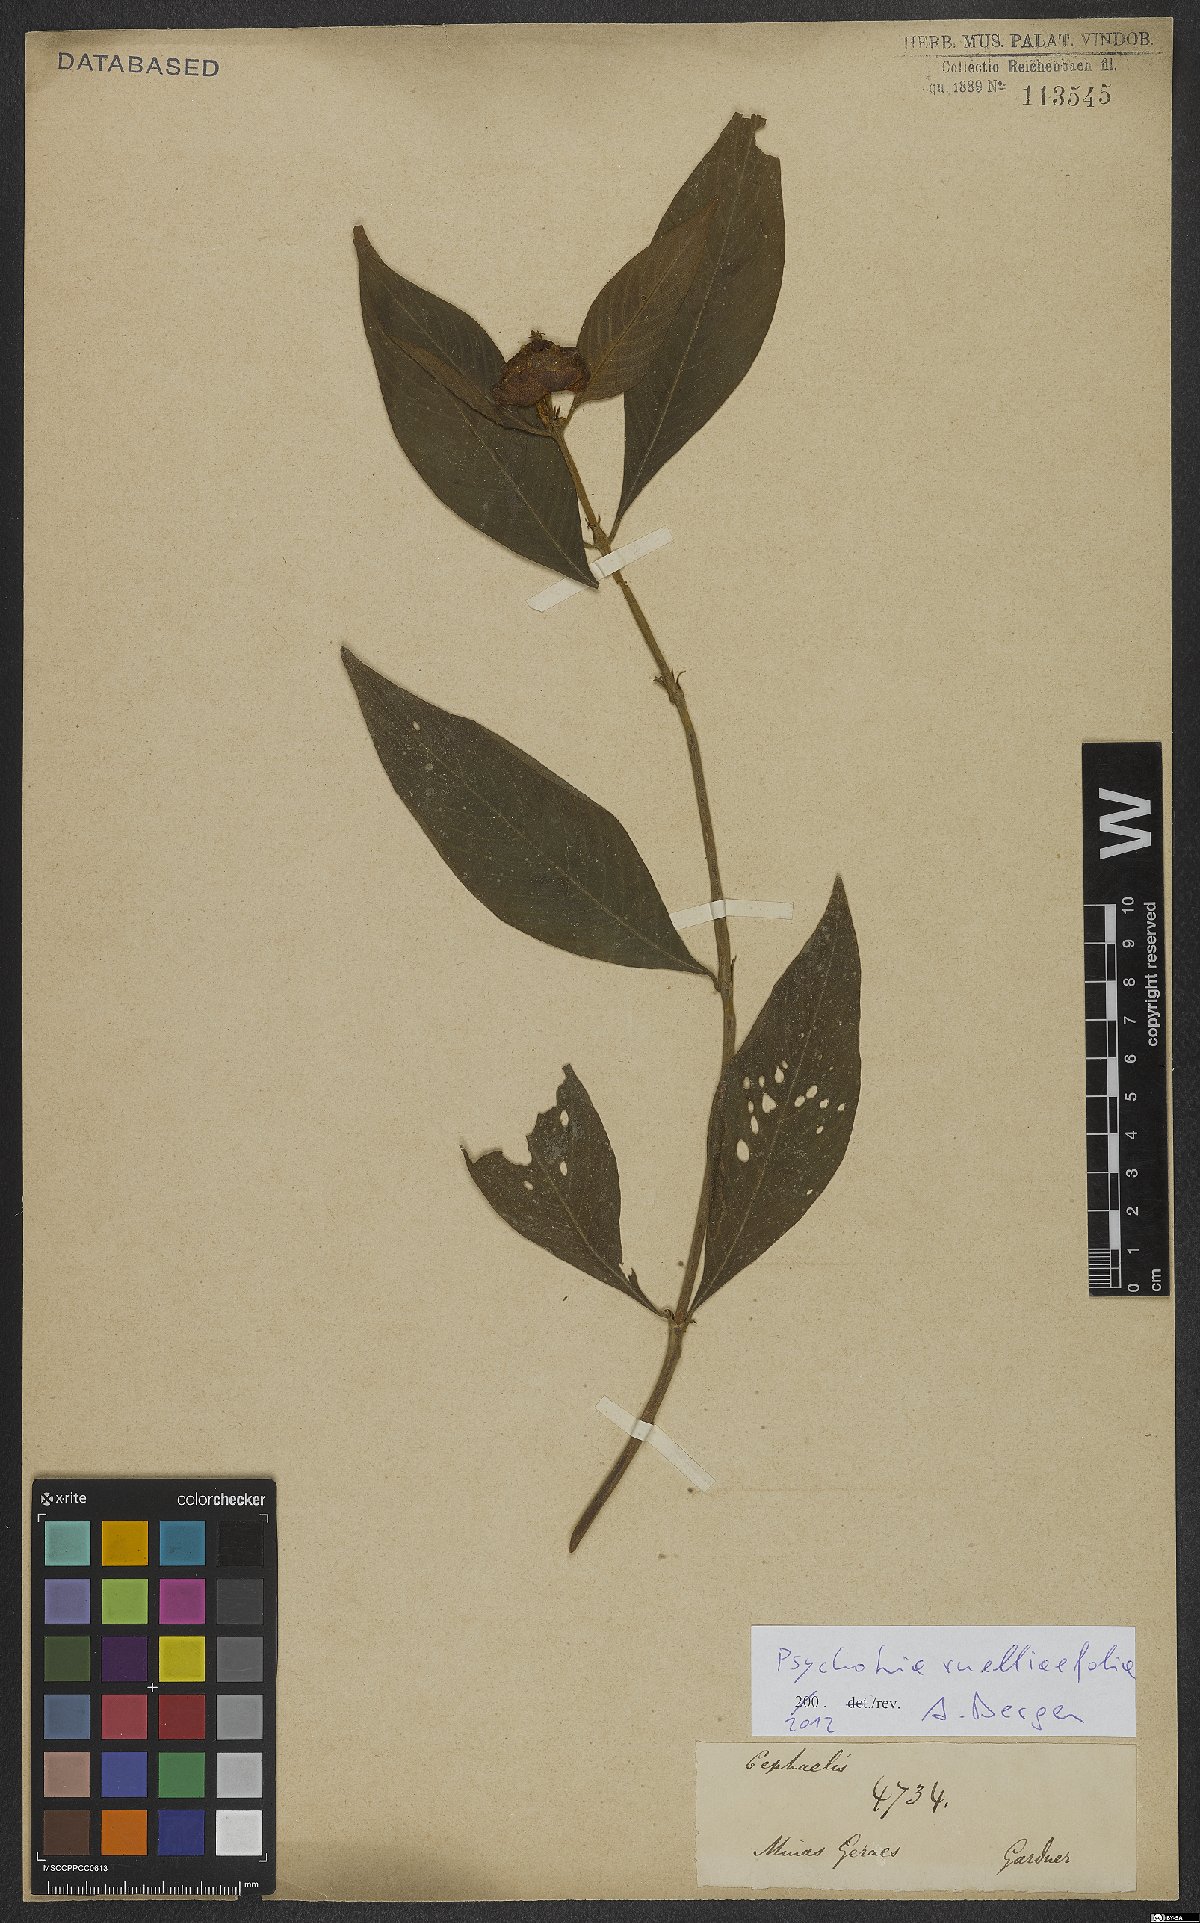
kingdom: Plantae
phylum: Tracheophyta
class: Magnoliopsida
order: Gentianales
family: Rubiaceae
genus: Palicourea
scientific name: Palicourea ruelliifolia
